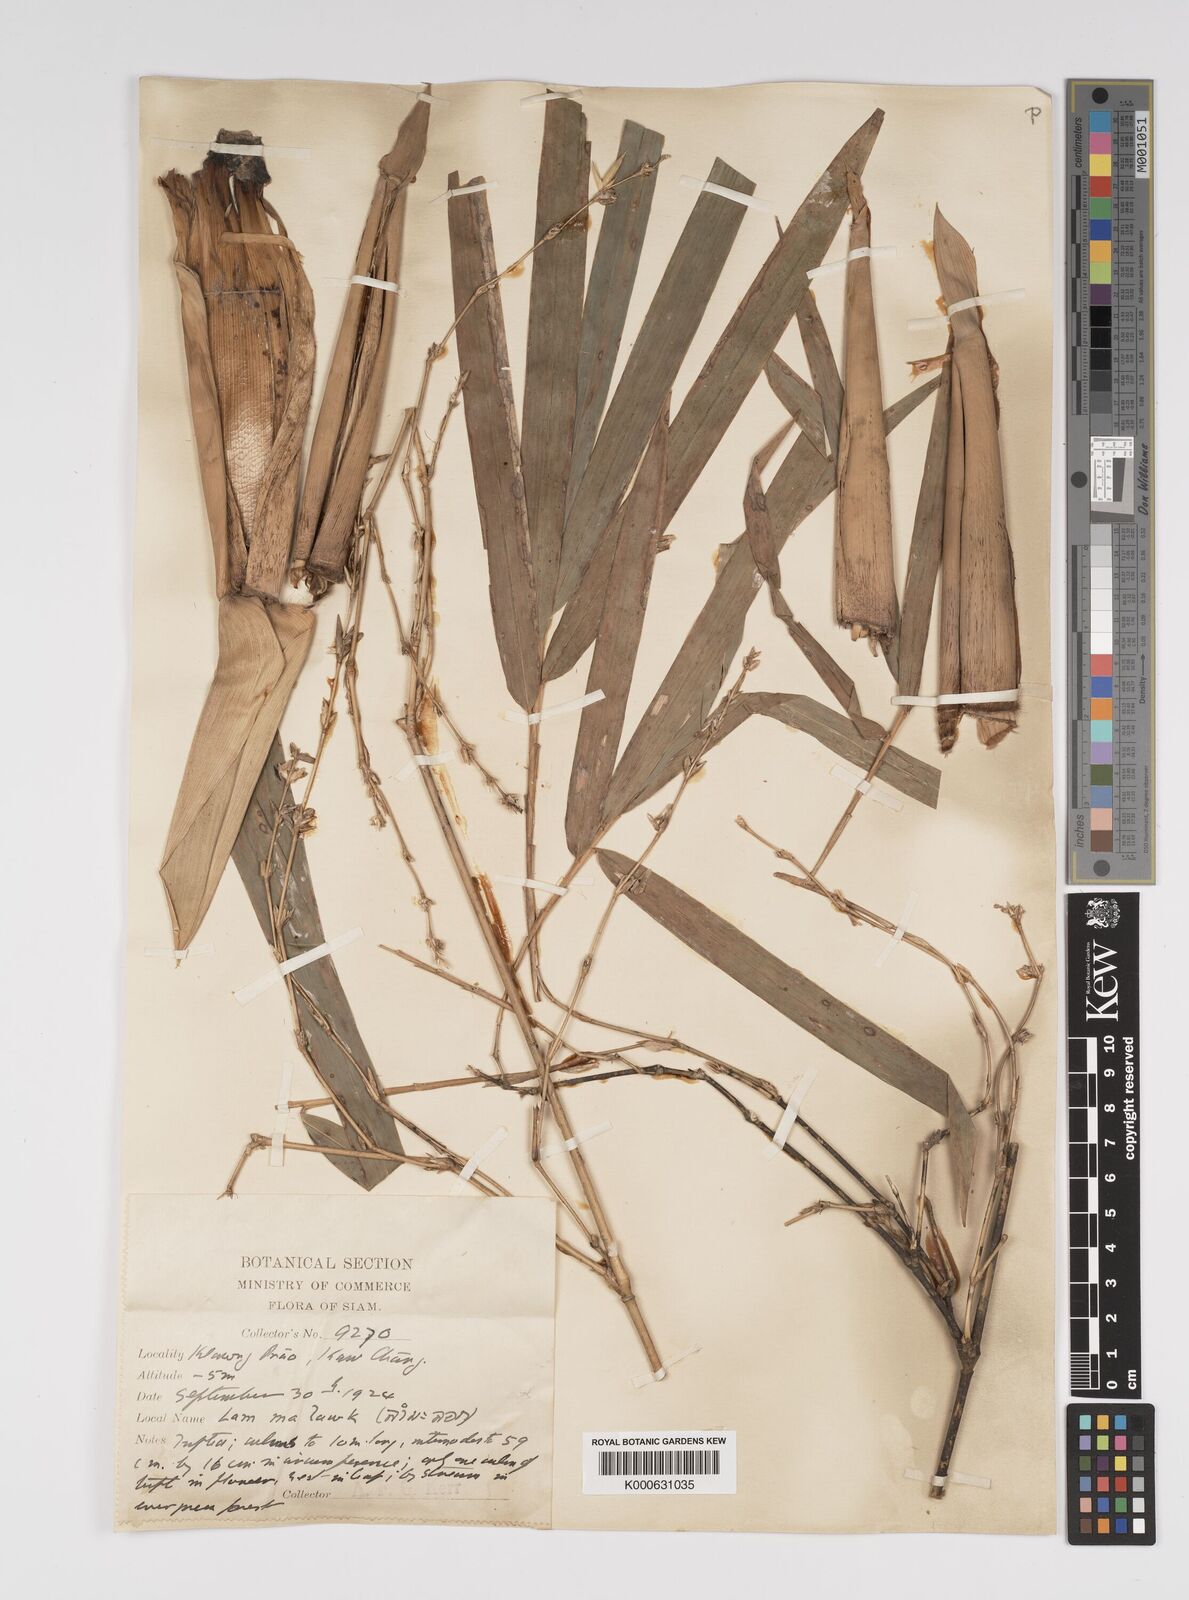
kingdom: Plantae
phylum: Tracheophyta
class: Liliopsida
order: Poales
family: Poaceae
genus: Bambusa
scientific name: Bambusa
